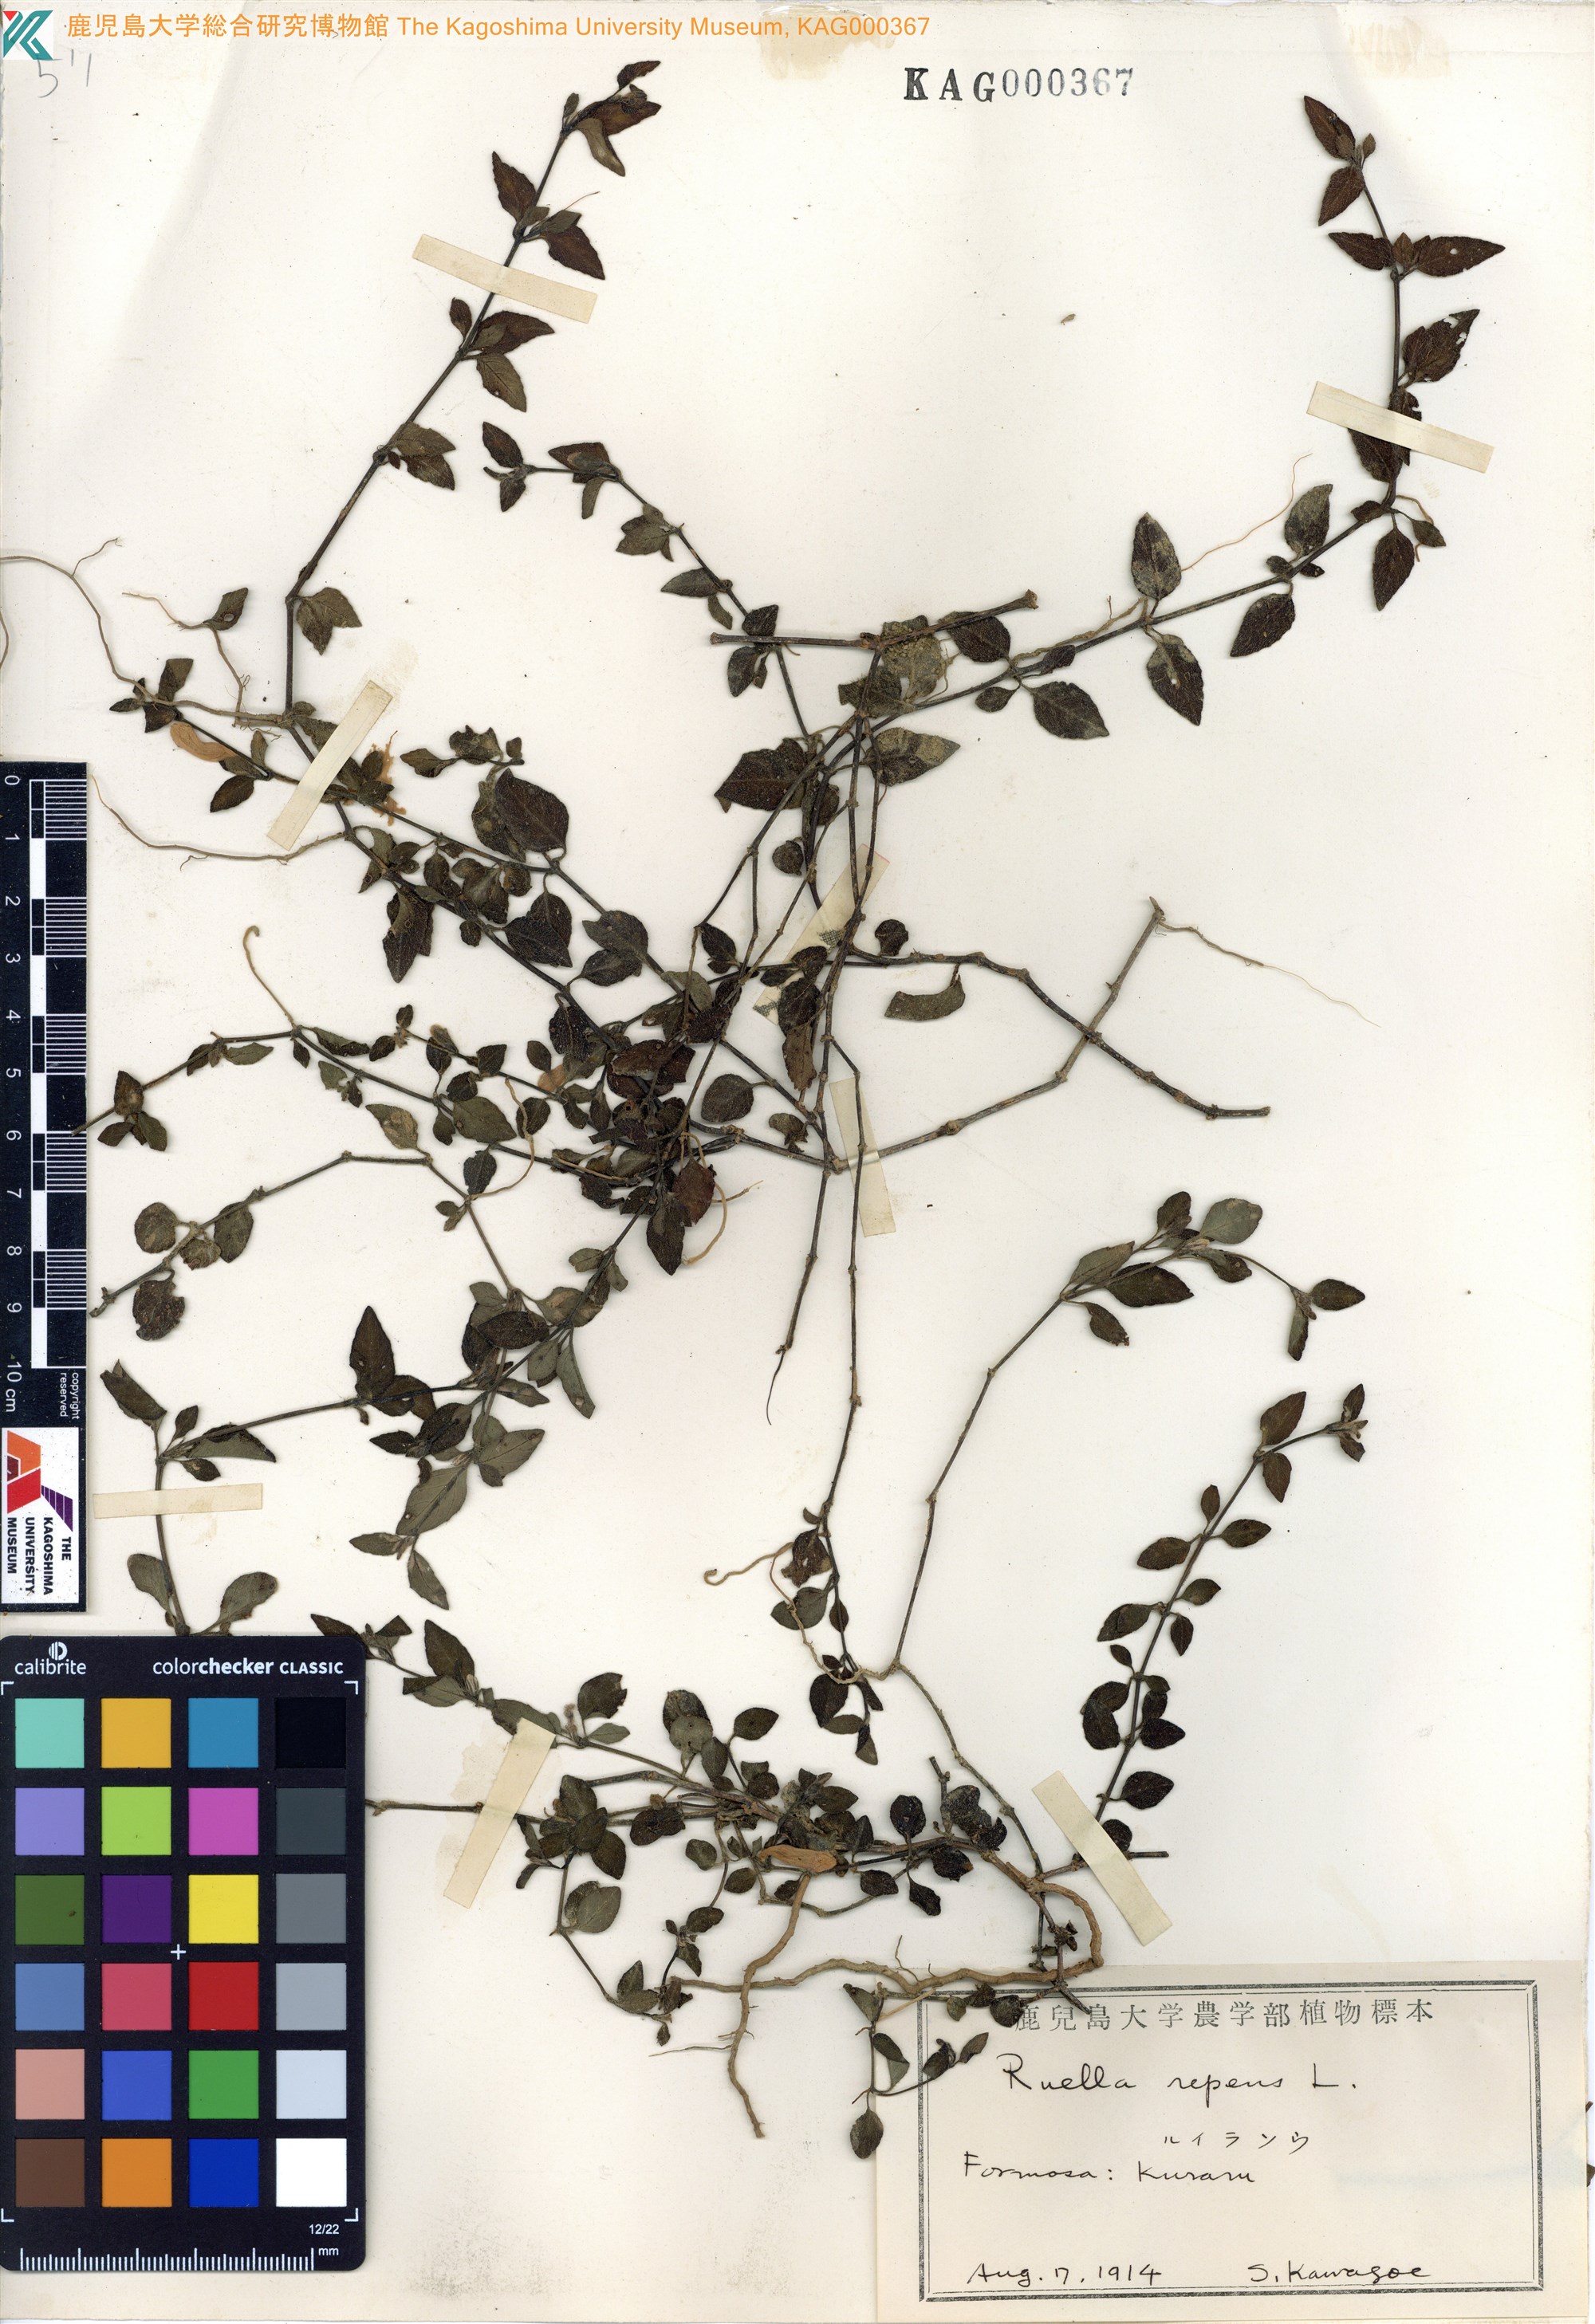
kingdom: Plantae
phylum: Tracheophyta
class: Magnoliopsida
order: Lamiales
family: Acanthaceae
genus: Ruellia
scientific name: Ruellia repens
